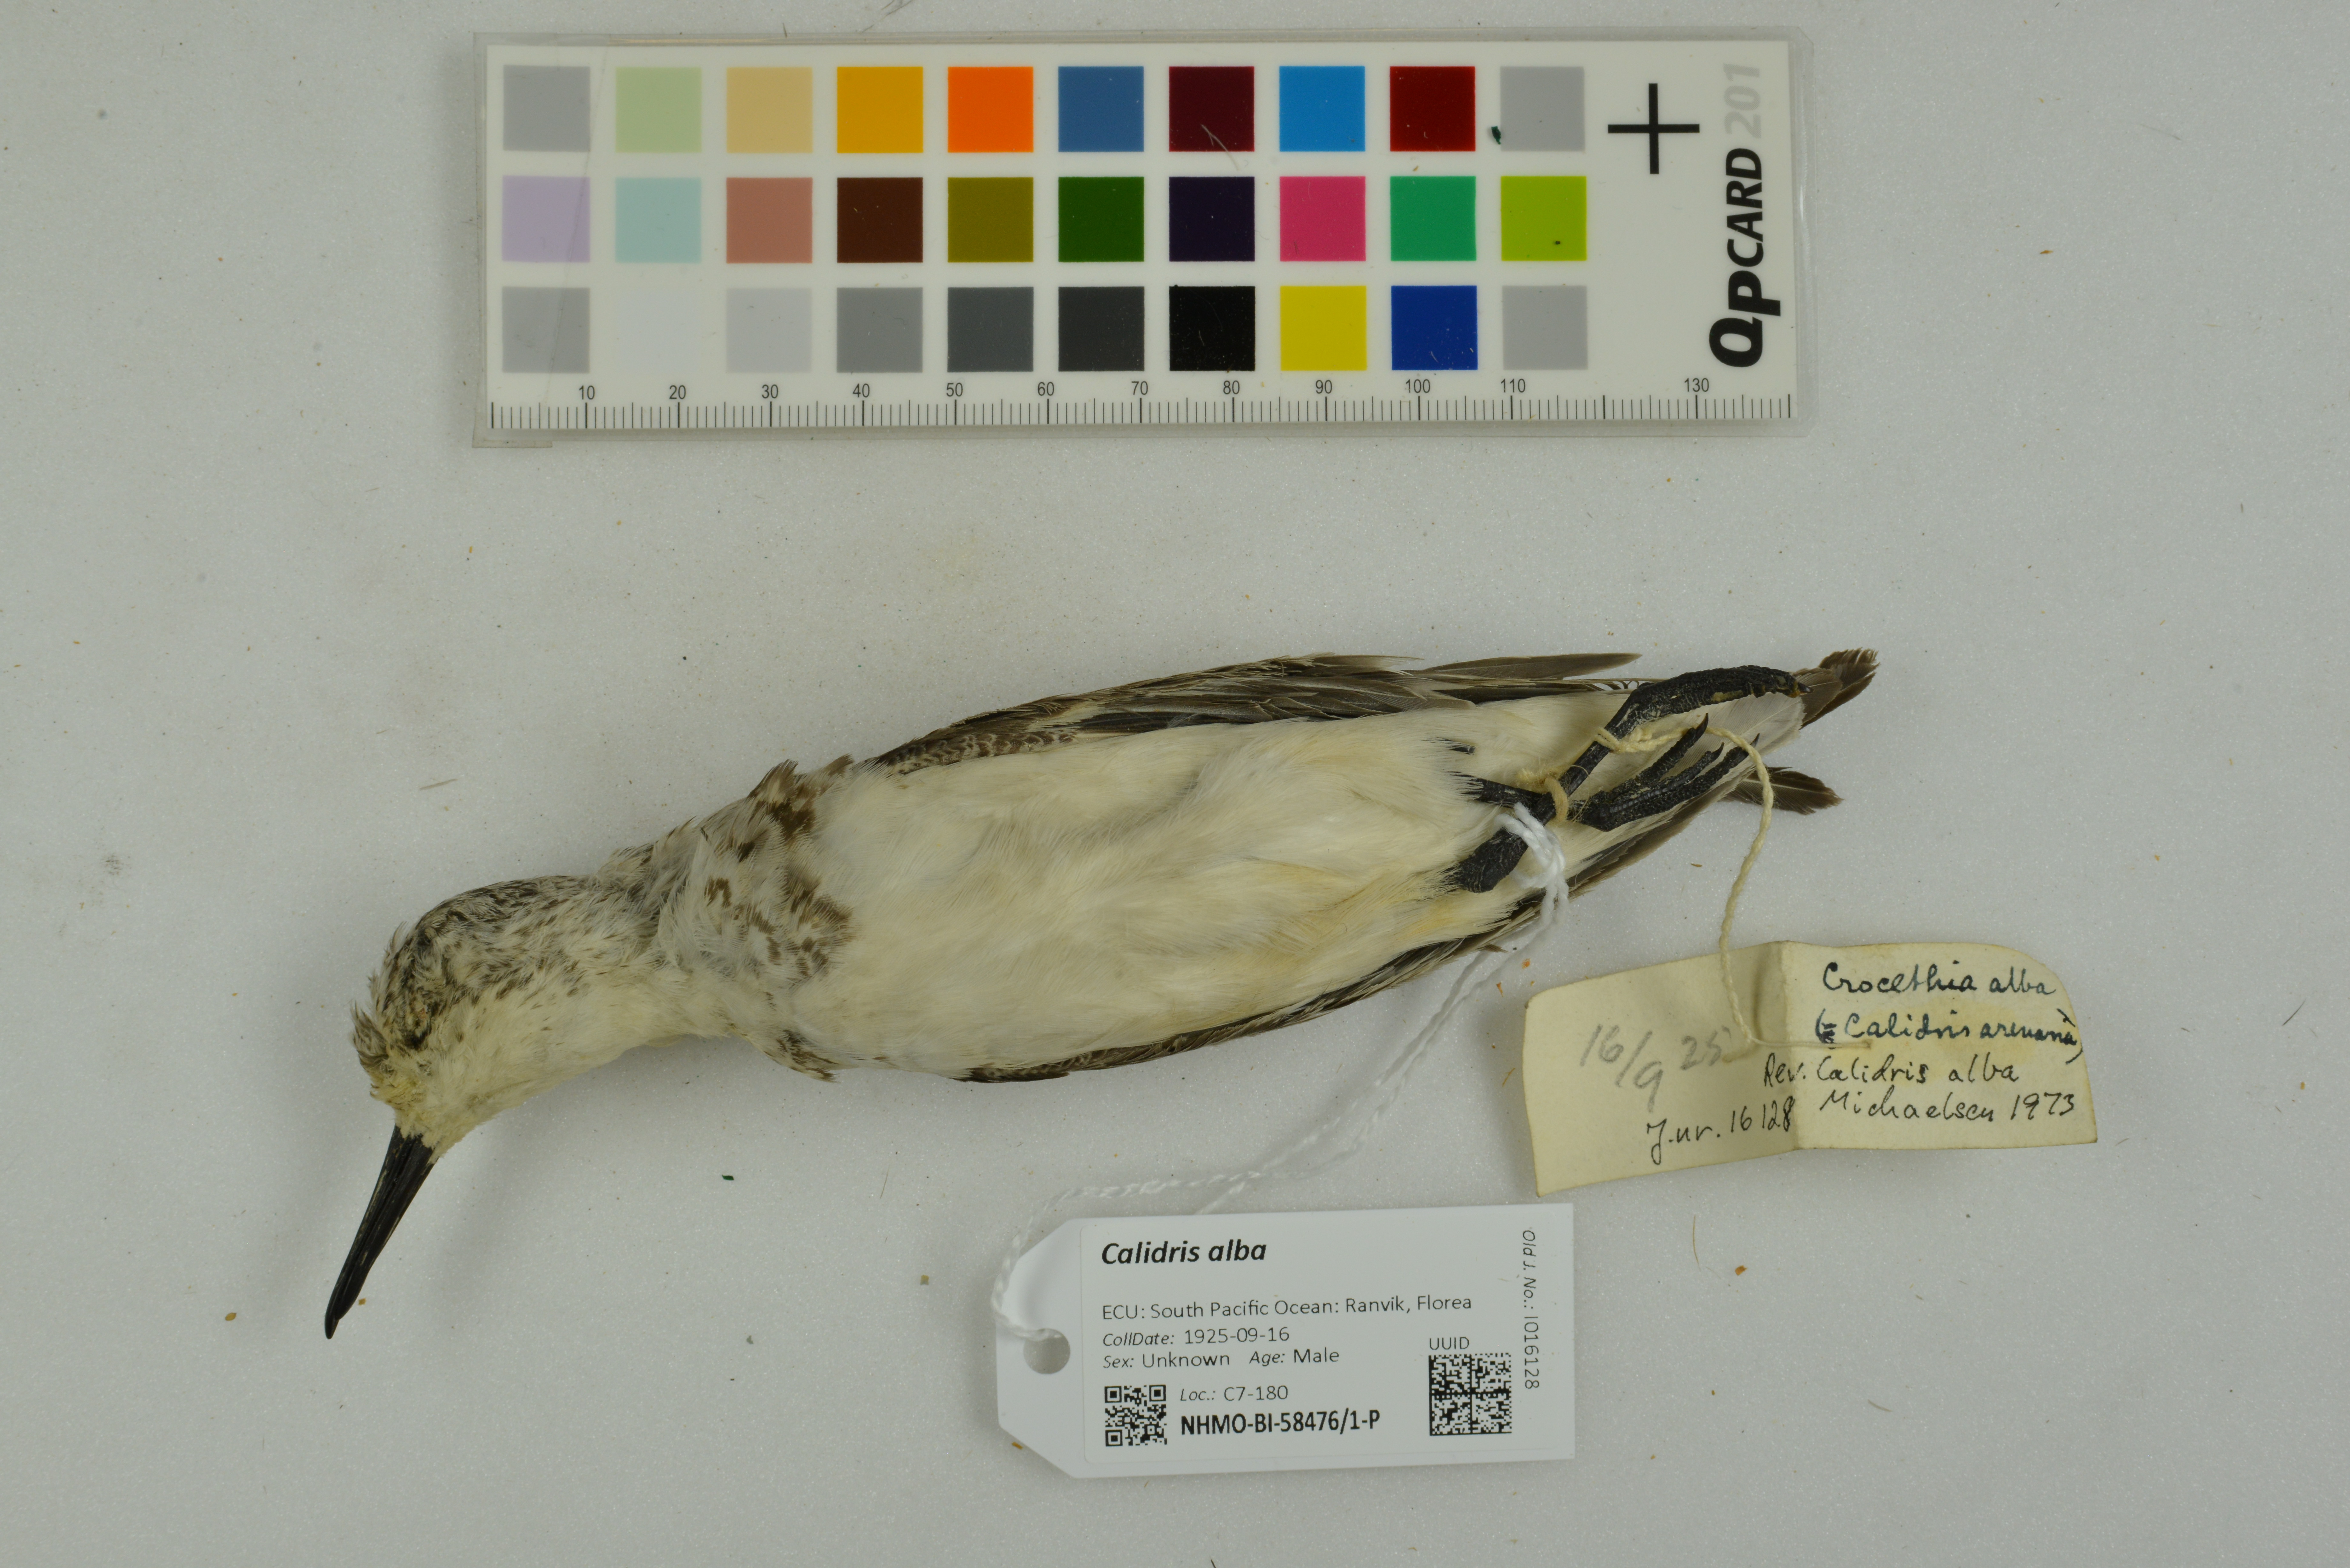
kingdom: Animalia
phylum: Chordata
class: Aves
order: Charadriiformes
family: Scolopacidae
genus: Calidris
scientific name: Calidris alba
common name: Sanderling
